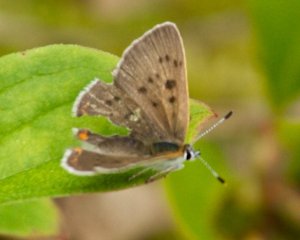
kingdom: Animalia
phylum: Arthropoda
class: Insecta
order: Lepidoptera
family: Sesiidae
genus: Sesia
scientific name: Sesia Lycaena epixanthe
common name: Bog Copper
